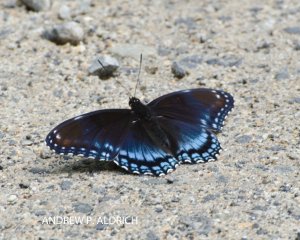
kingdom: Animalia
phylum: Arthropoda
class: Insecta
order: Lepidoptera
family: Nymphalidae
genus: Limenitis
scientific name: Limenitis astyanax
